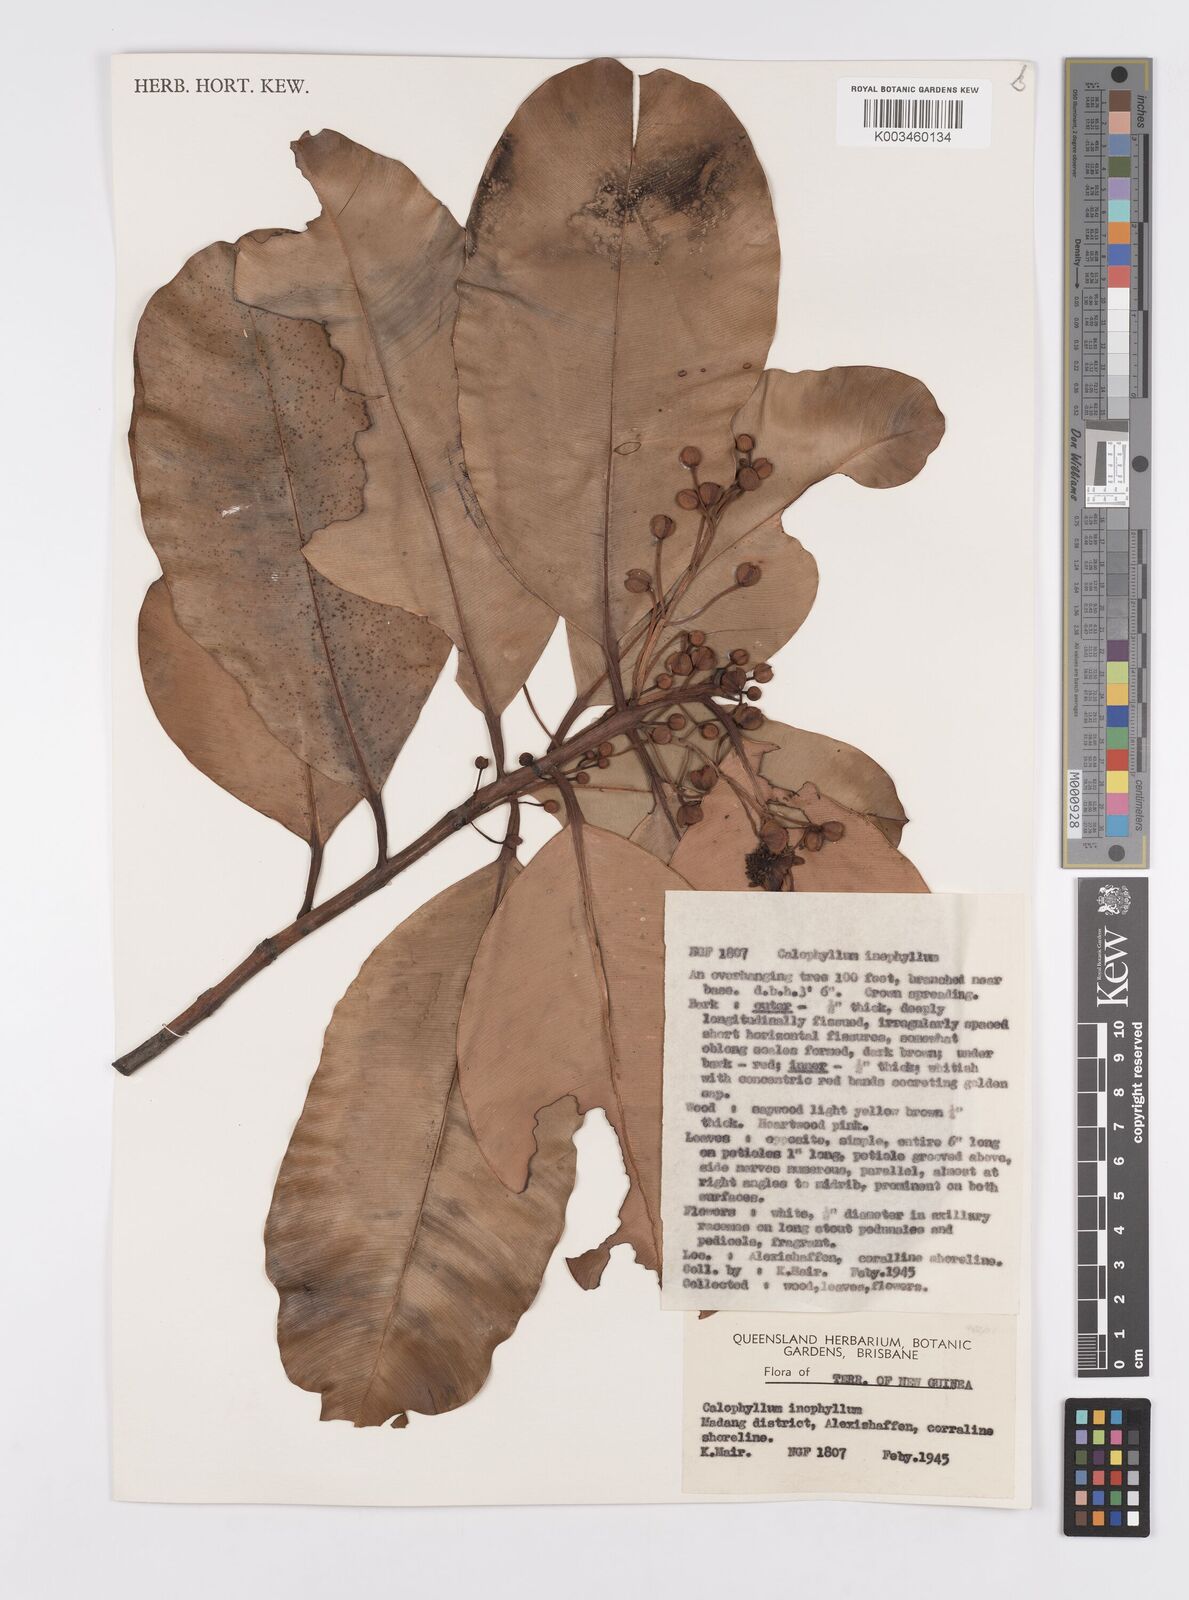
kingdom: Plantae
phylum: Tracheophyta
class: Magnoliopsida
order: Malpighiales
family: Calophyllaceae
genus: Calophyllum
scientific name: Calophyllum inophyllum
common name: Alexandrian laurel
